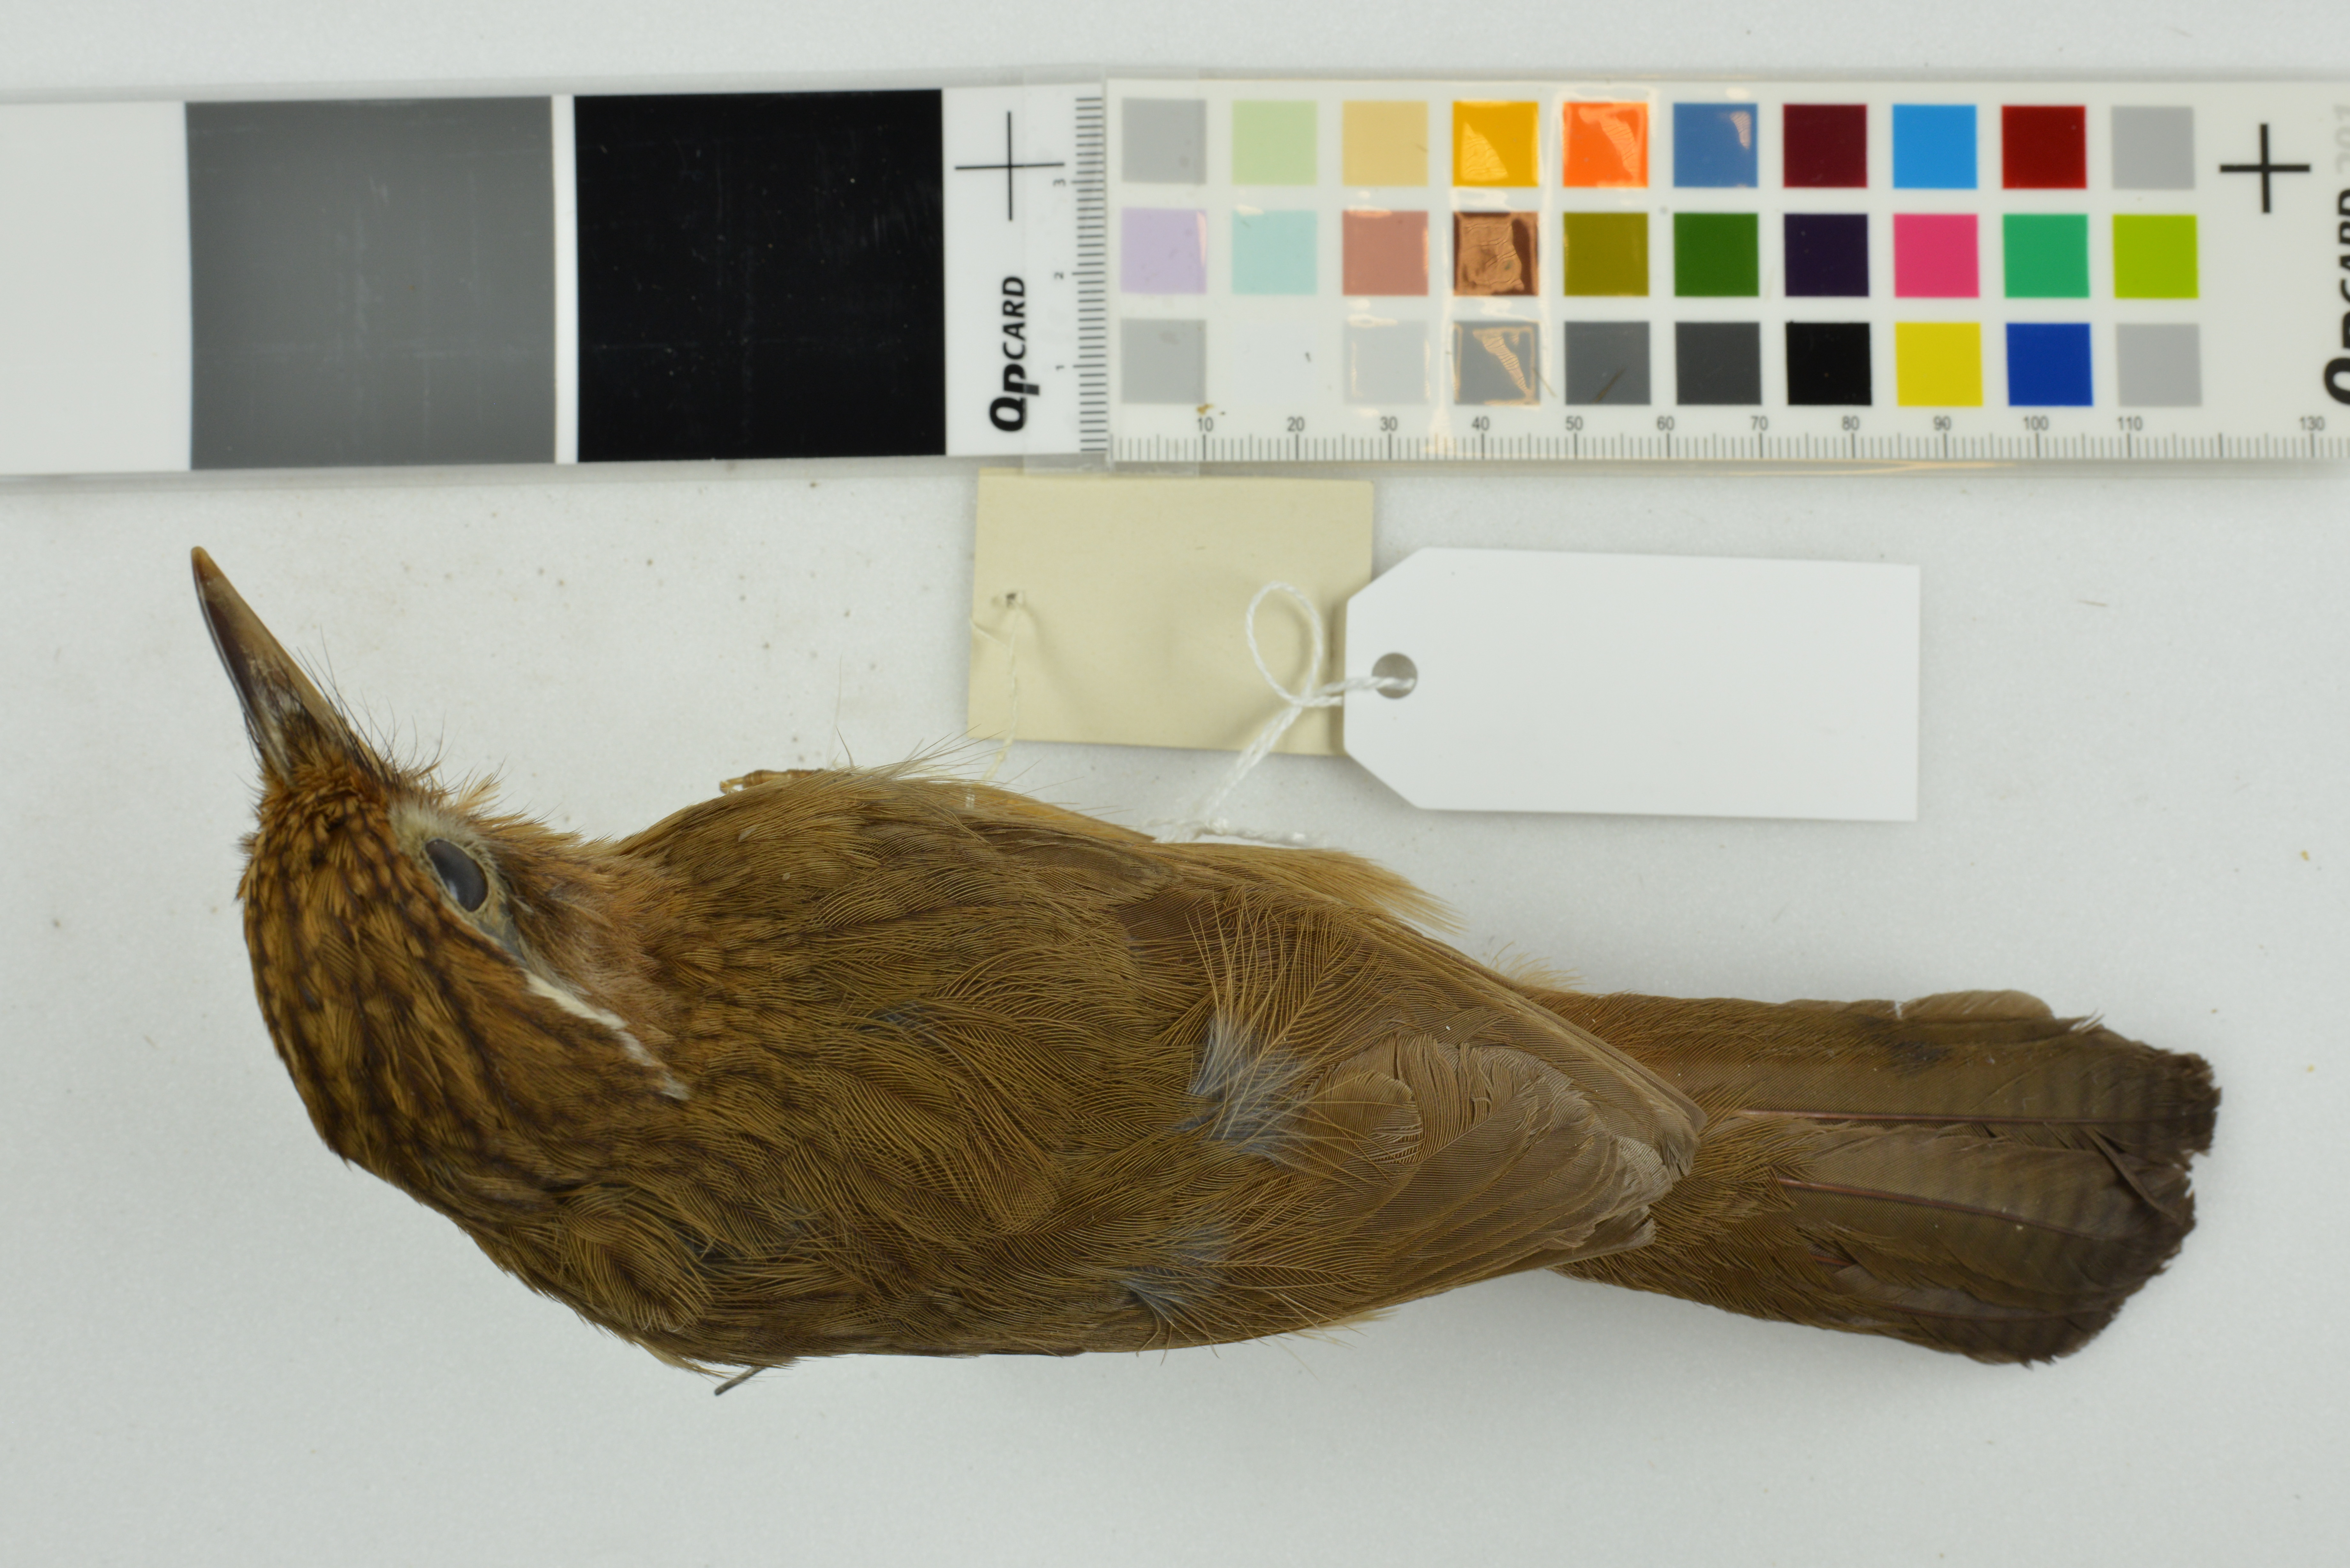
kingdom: Animalia
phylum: Chordata
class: Aves
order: Passeriformes
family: Leiothrichidae
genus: Garrulax
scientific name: Garrulax canorus
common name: Chinese hwamei
